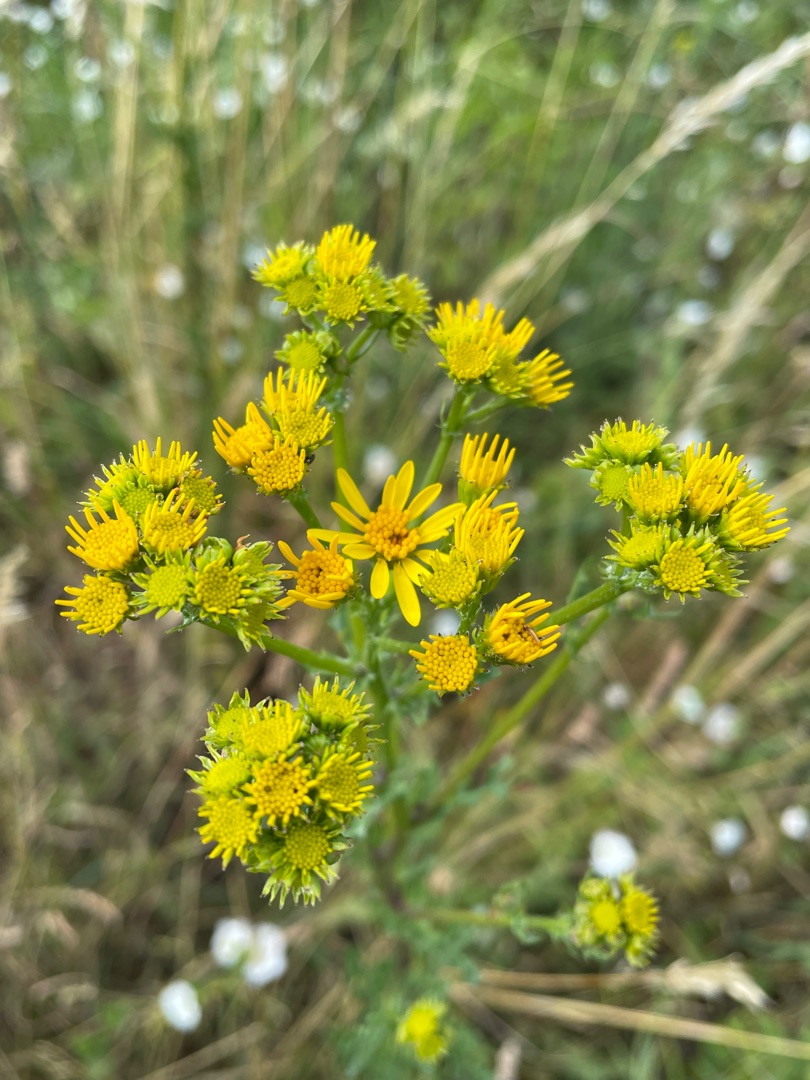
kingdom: Plantae
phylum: Tracheophyta
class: Magnoliopsida
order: Asterales
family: Asteraceae
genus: Jacobaea
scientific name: Jacobaea vulgaris
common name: Eng-brandbæger
